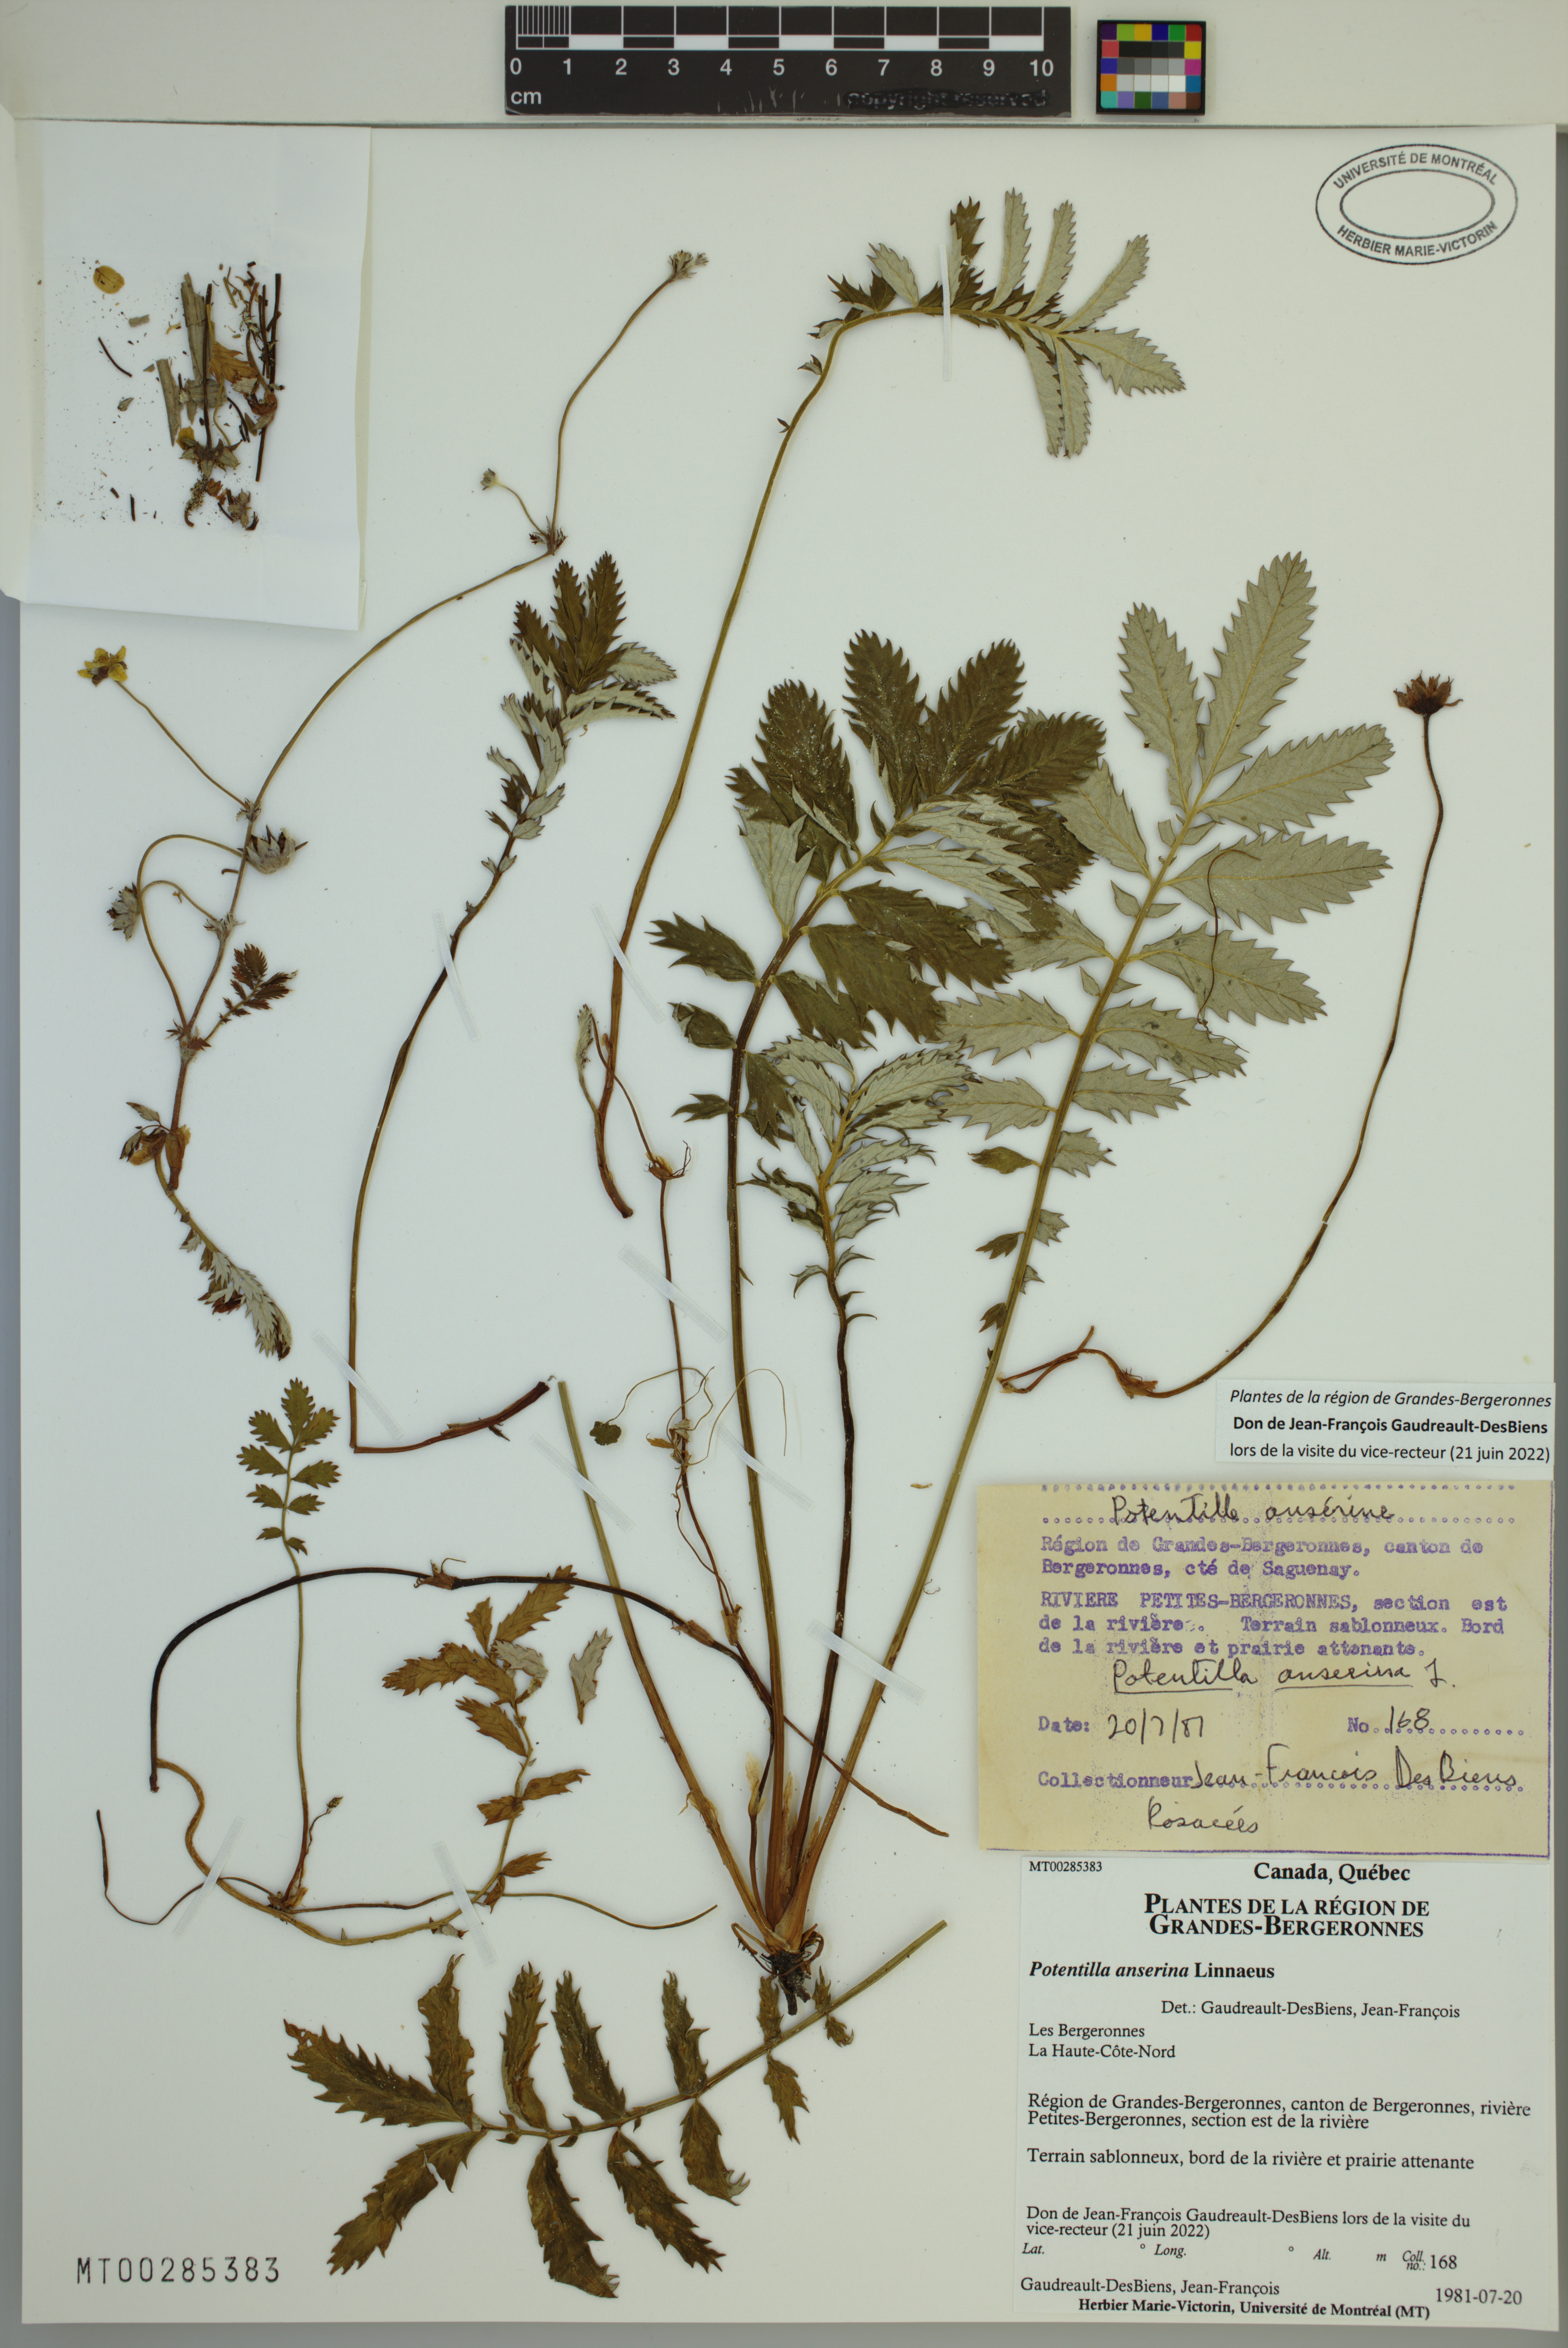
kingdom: Plantae
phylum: Tracheophyta
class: Magnoliopsida
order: Rosales
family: Rosaceae
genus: Argentina
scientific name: Argentina anserina
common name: Common silverweed
